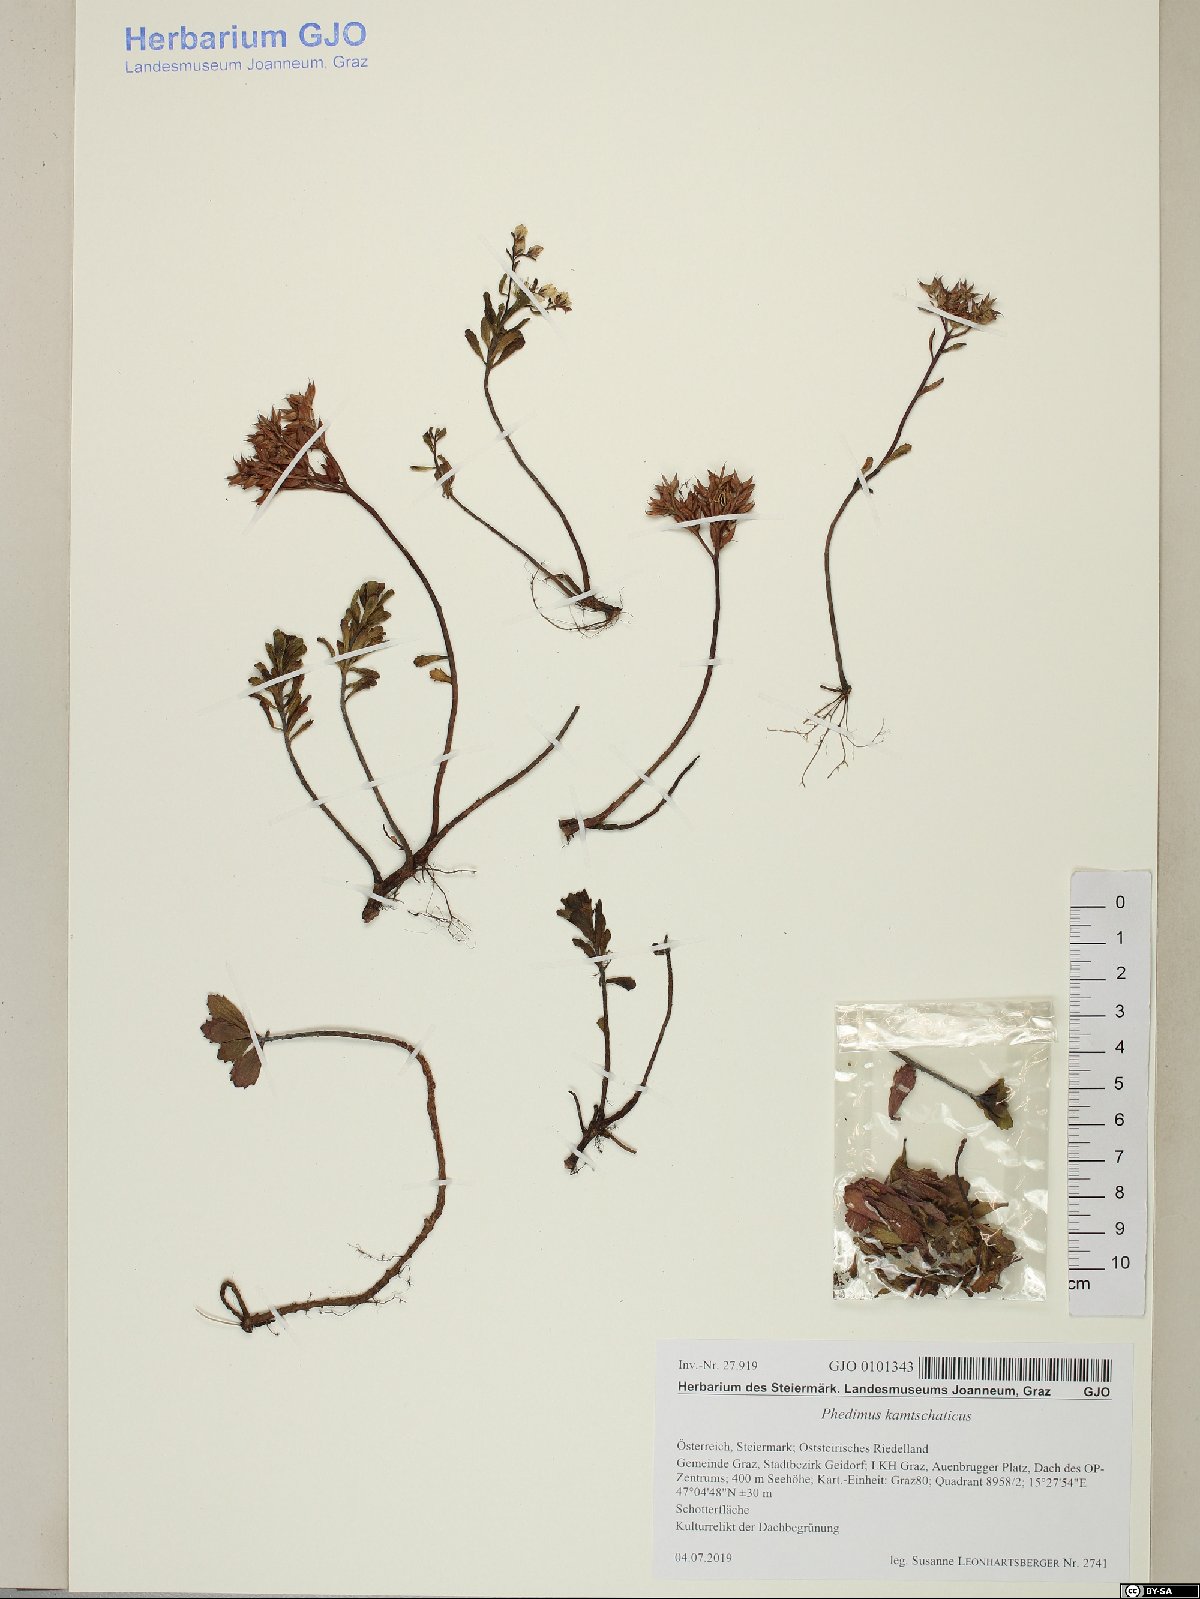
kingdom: Plantae
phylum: Tracheophyta
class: Magnoliopsida
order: Saxifragales
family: Crassulaceae
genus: Phedimus
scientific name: Phedimus kamtschaticus
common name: Orange stonecrop
